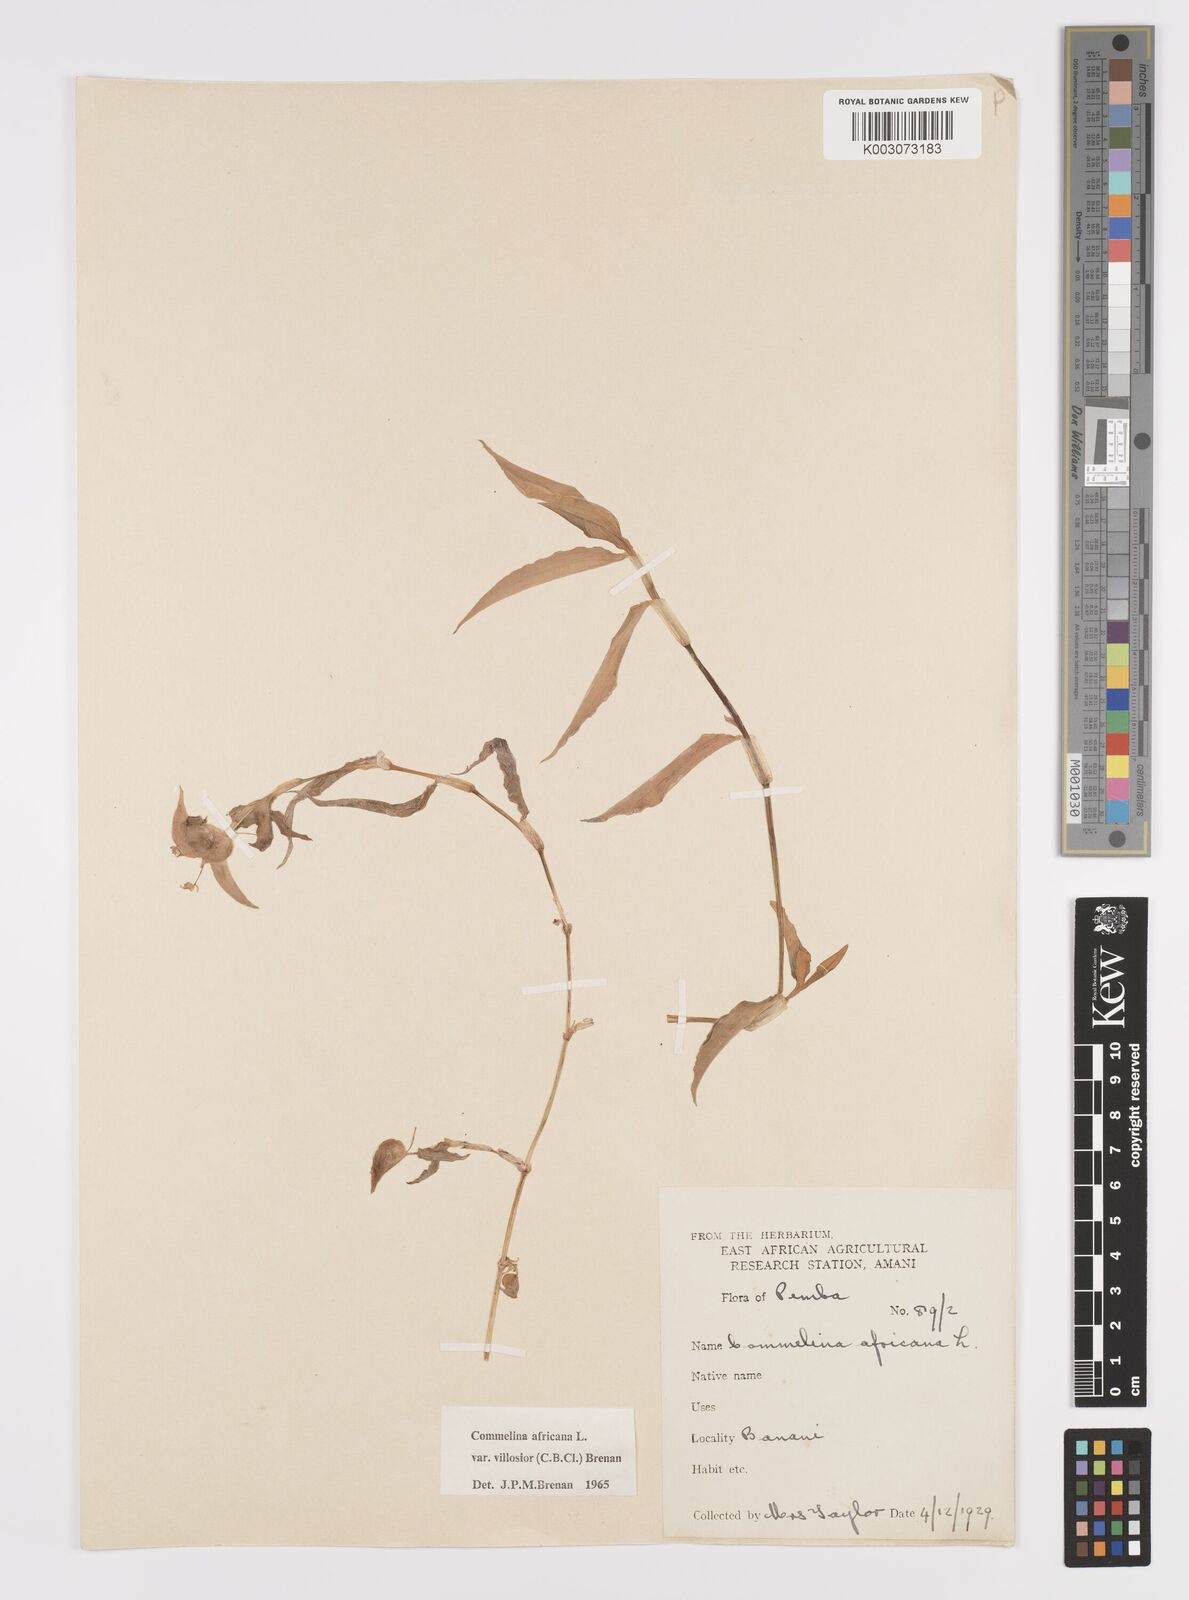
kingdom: Plantae
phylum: Tracheophyta
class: Liliopsida
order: Commelinales
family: Commelinaceae
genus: Commelina
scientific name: Commelina africana
